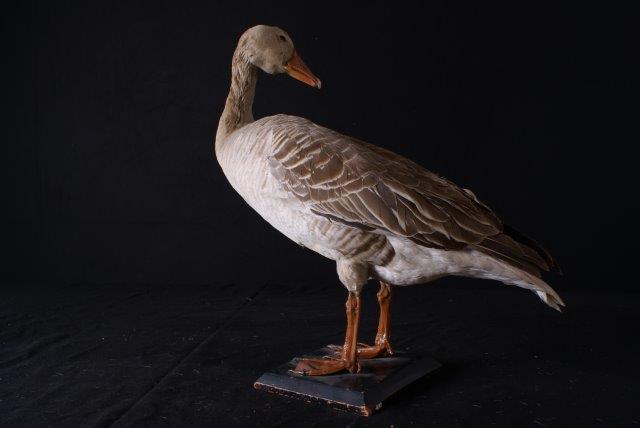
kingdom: Animalia
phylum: Chordata
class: Aves
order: Anseriformes
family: Anatidae
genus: Anser
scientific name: Anser anser
